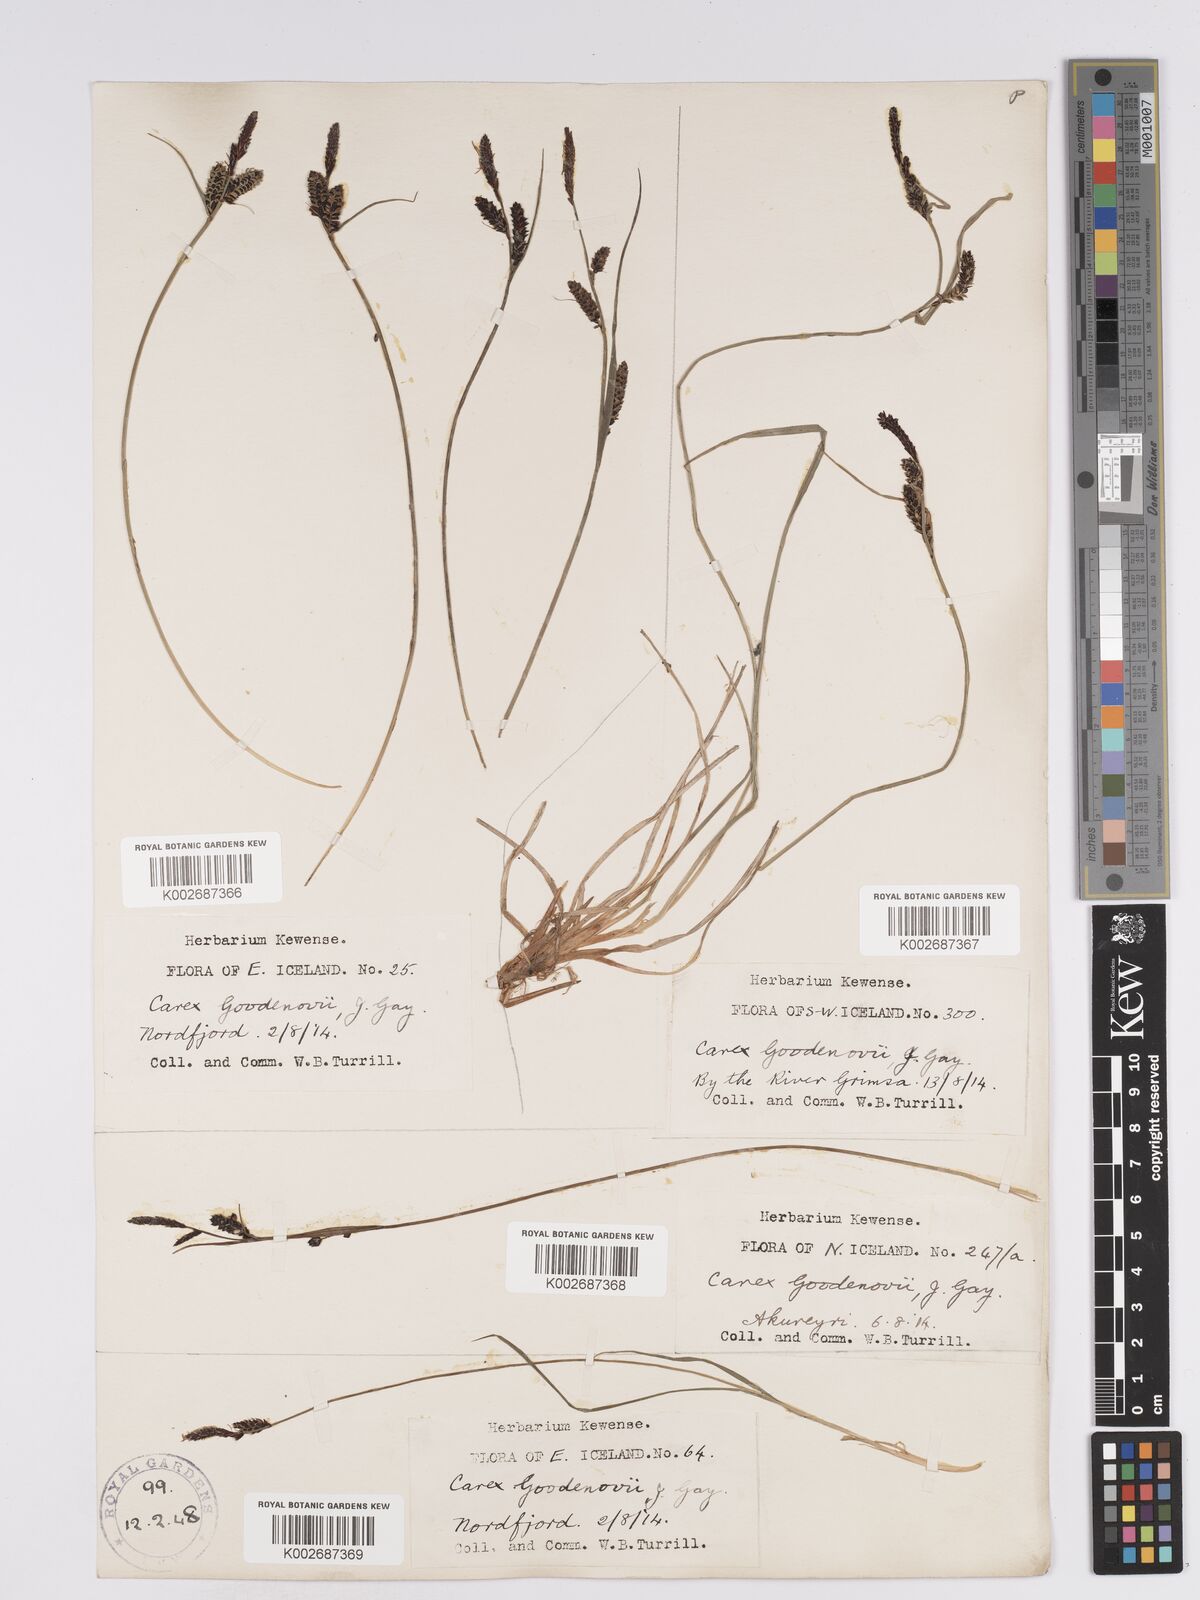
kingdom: Plantae
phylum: Tracheophyta
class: Liliopsida
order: Poales
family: Cyperaceae
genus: Carex
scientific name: Carex nigra
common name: Common sedge
